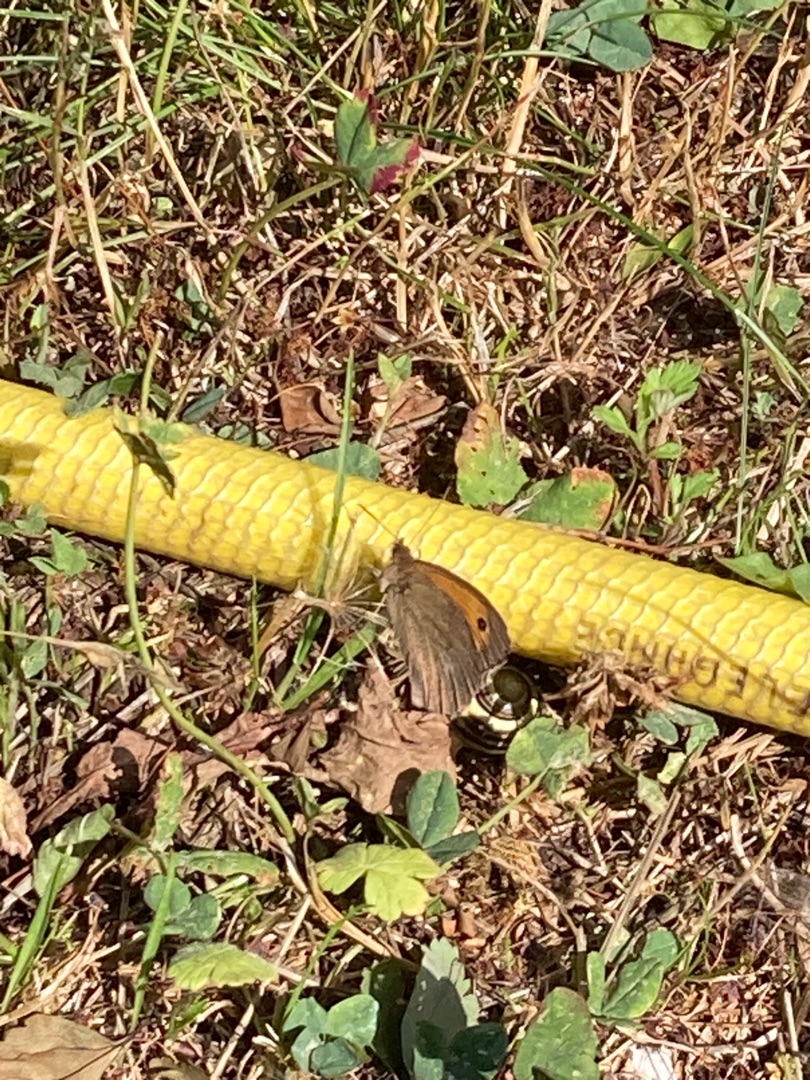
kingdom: Animalia
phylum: Arthropoda
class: Insecta
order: Lepidoptera
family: Nymphalidae
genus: Maniola
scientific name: Maniola jurtina
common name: Græsrandøje
